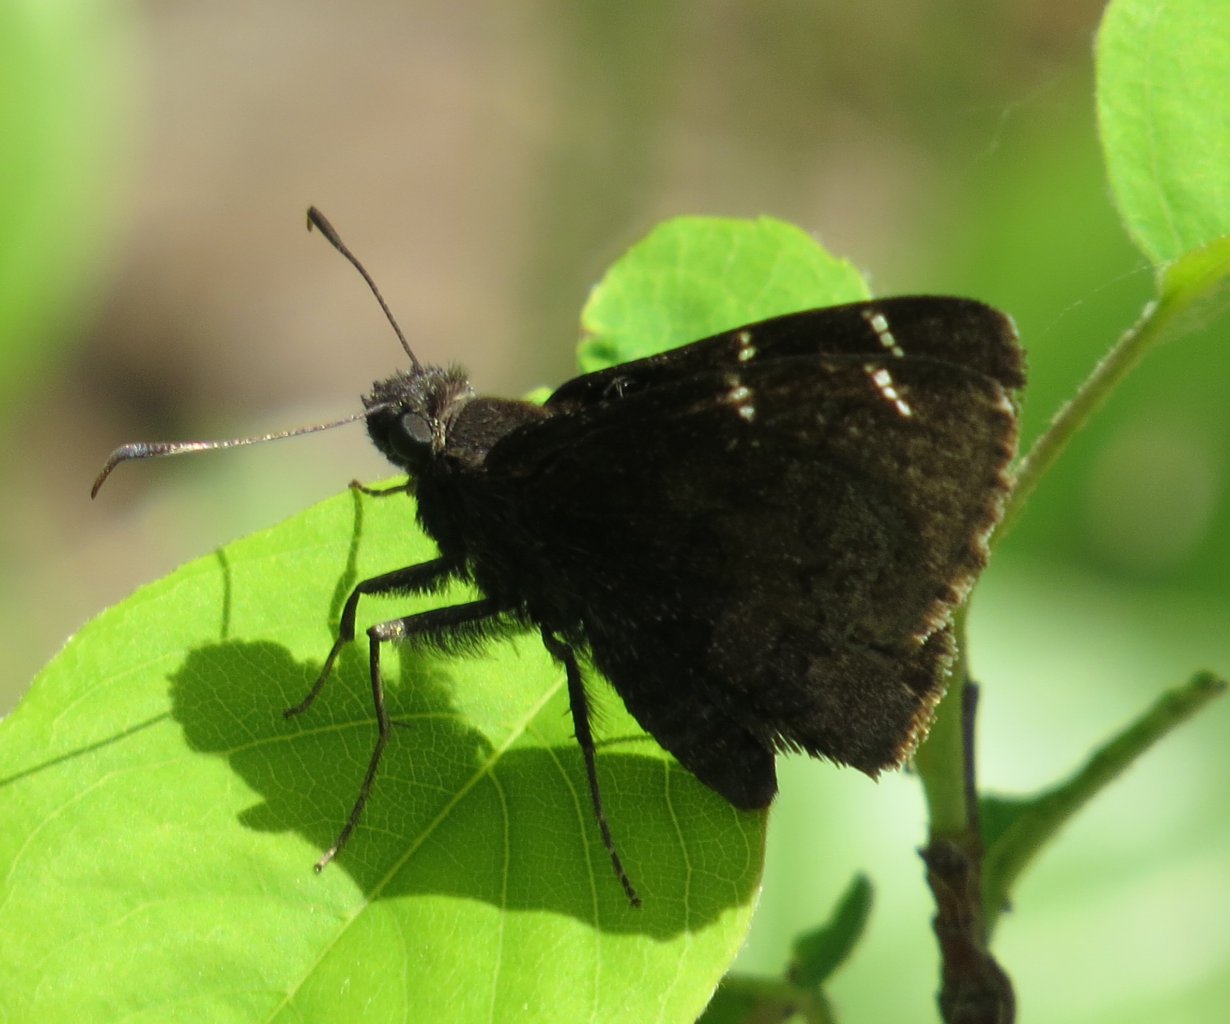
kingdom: Animalia
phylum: Arthropoda
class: Insecta
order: Lepidoptera
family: Hesperiidae
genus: Autochton
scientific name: Autochton
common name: Northern Cloudywing
